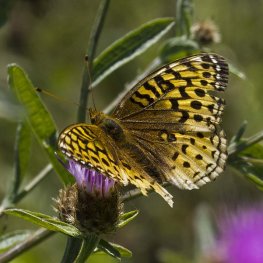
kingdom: Animalia
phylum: Arthropoda
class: Insecta
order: Lepidoptera
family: Nymphalidae
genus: Speyeria
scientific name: Speyeria cybele
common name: Great Spangled Fritillary
